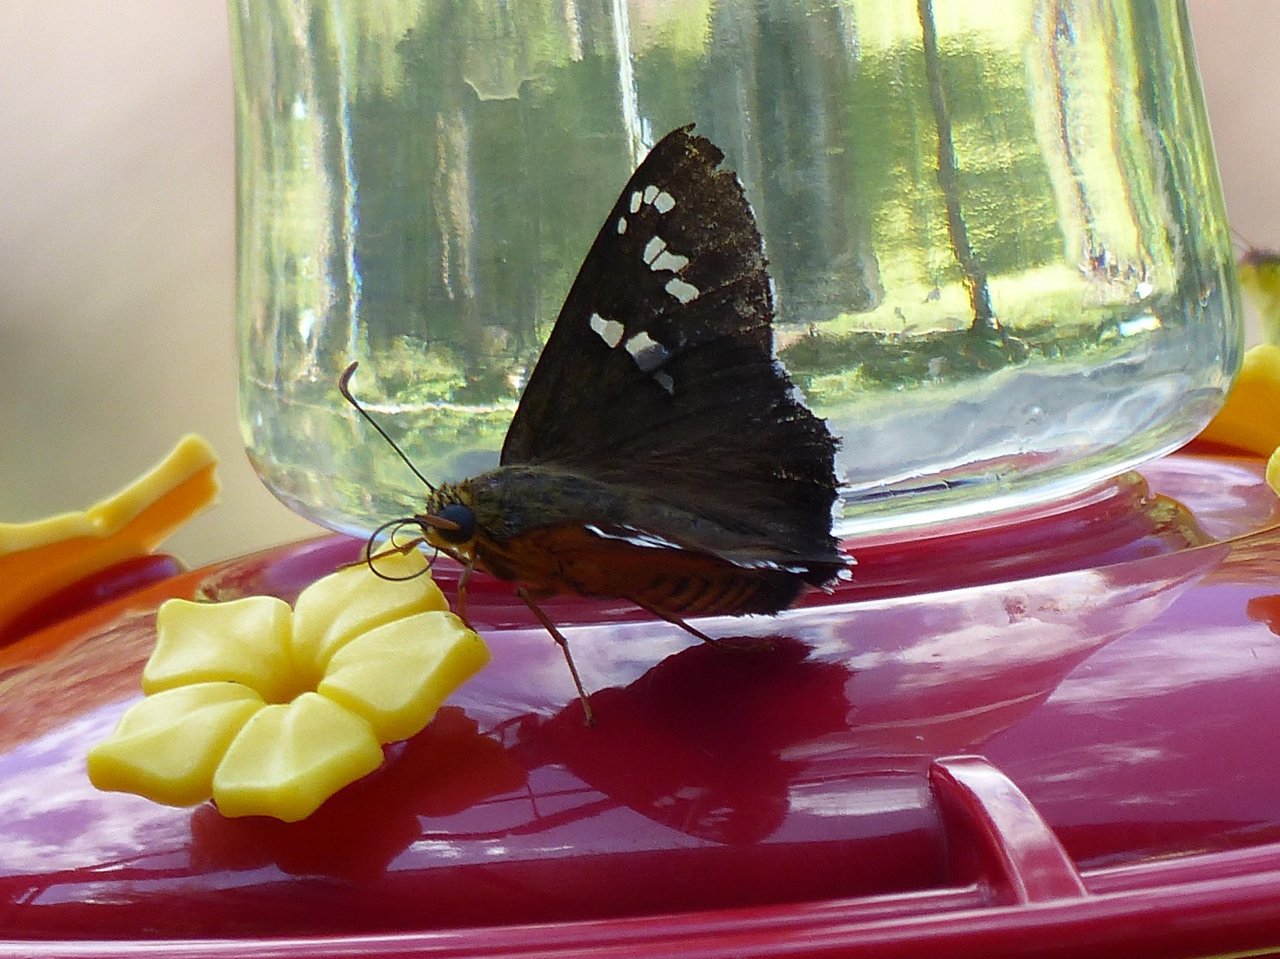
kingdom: Animalia
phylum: Arthropoda
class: Insecta
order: Lepidoptera
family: Hesperiidae
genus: Pyrrhopyge
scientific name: Pyrrhopyge araxes
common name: Dull Firetip
